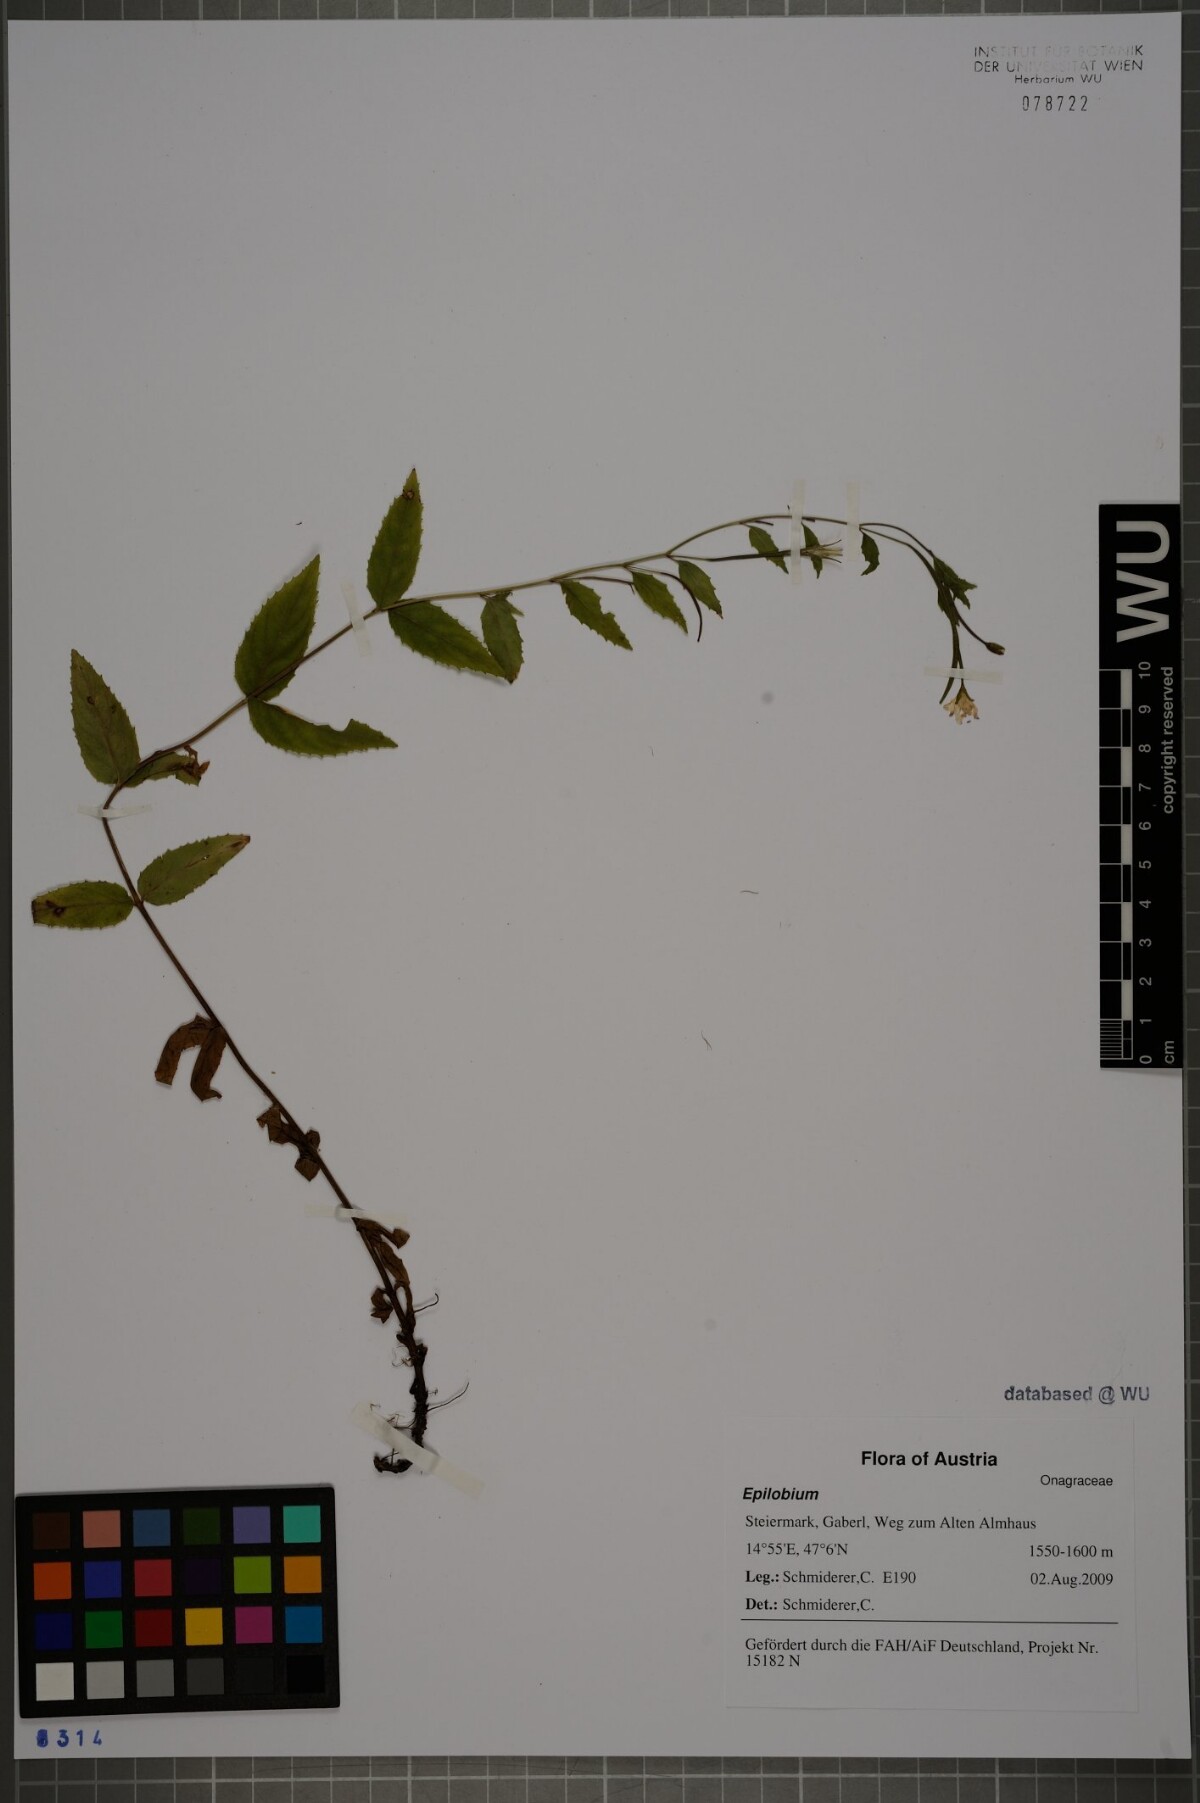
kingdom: Plantae
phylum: Tracheophyta
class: Magnoliopsida
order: Myrtales
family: Onagraceae
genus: Epilobium
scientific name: Epilobium montanum
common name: Broad-leaved willowherb
